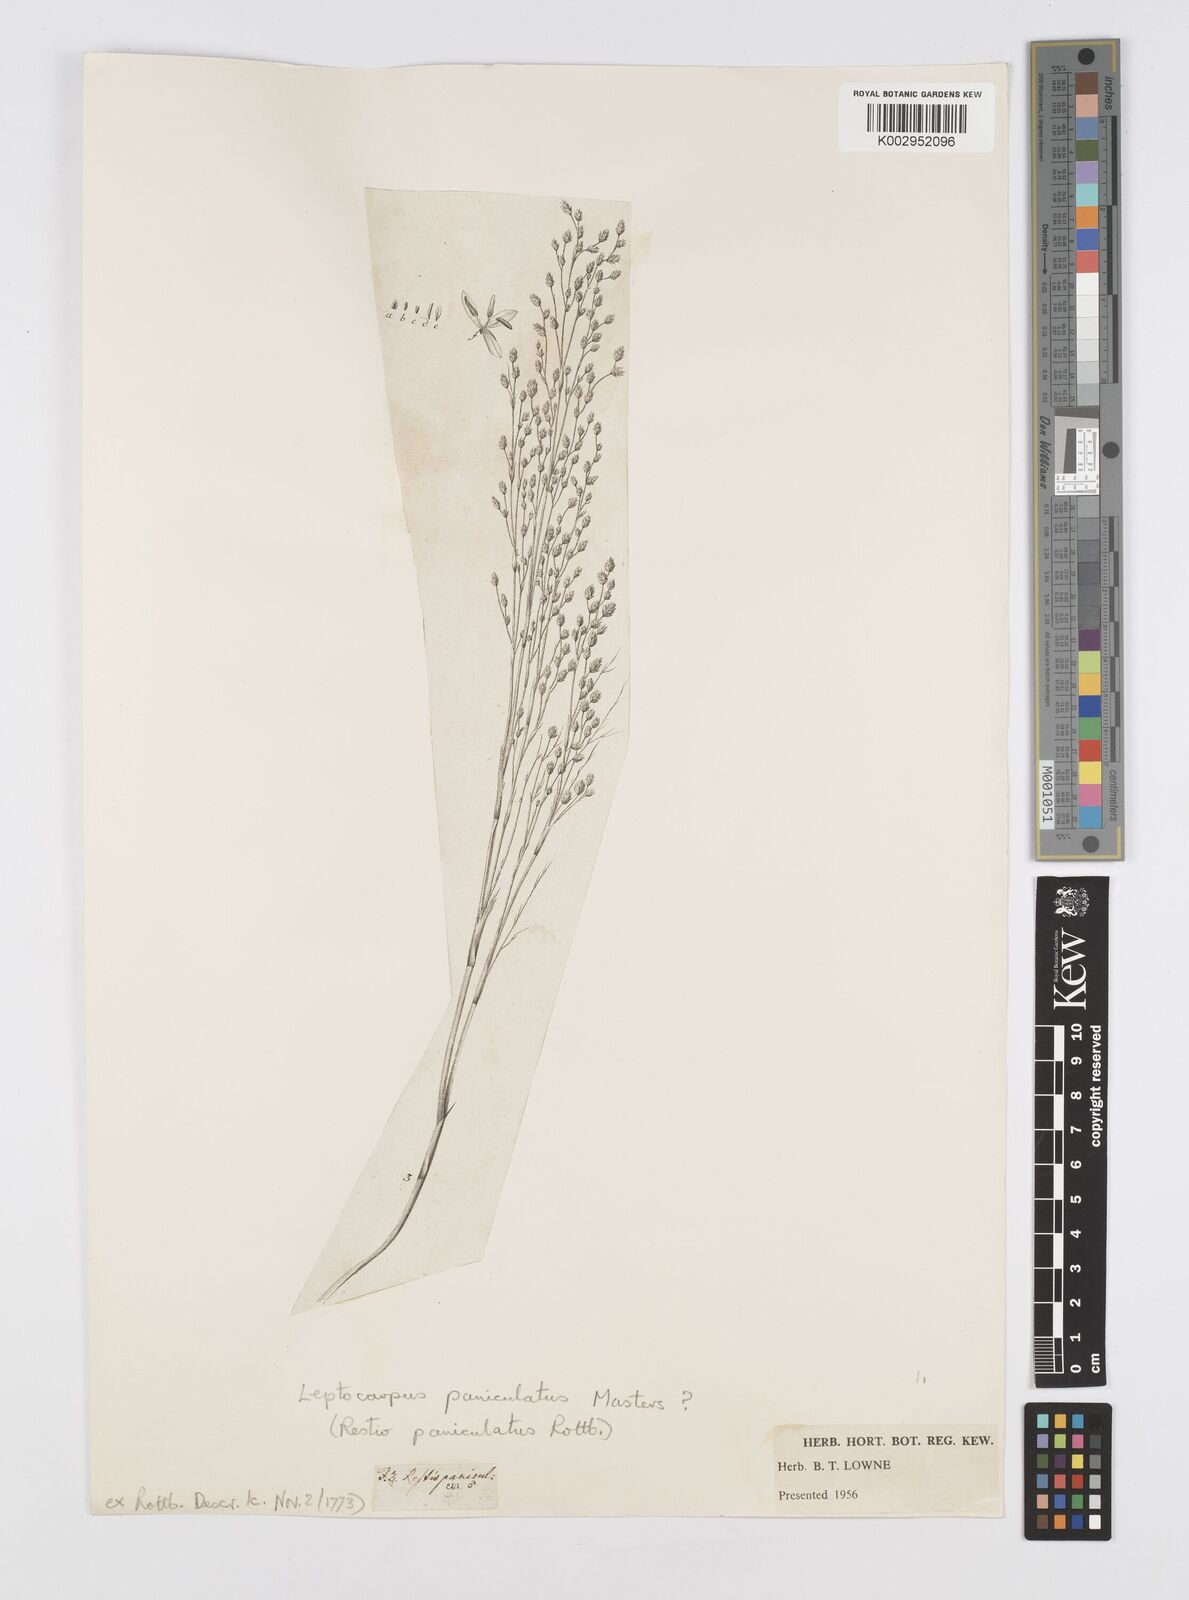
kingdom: Plantae
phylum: Tracheophyta
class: Liliopsida
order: Poales
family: Restionaceae
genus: Restio
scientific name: Restio paniculatus
